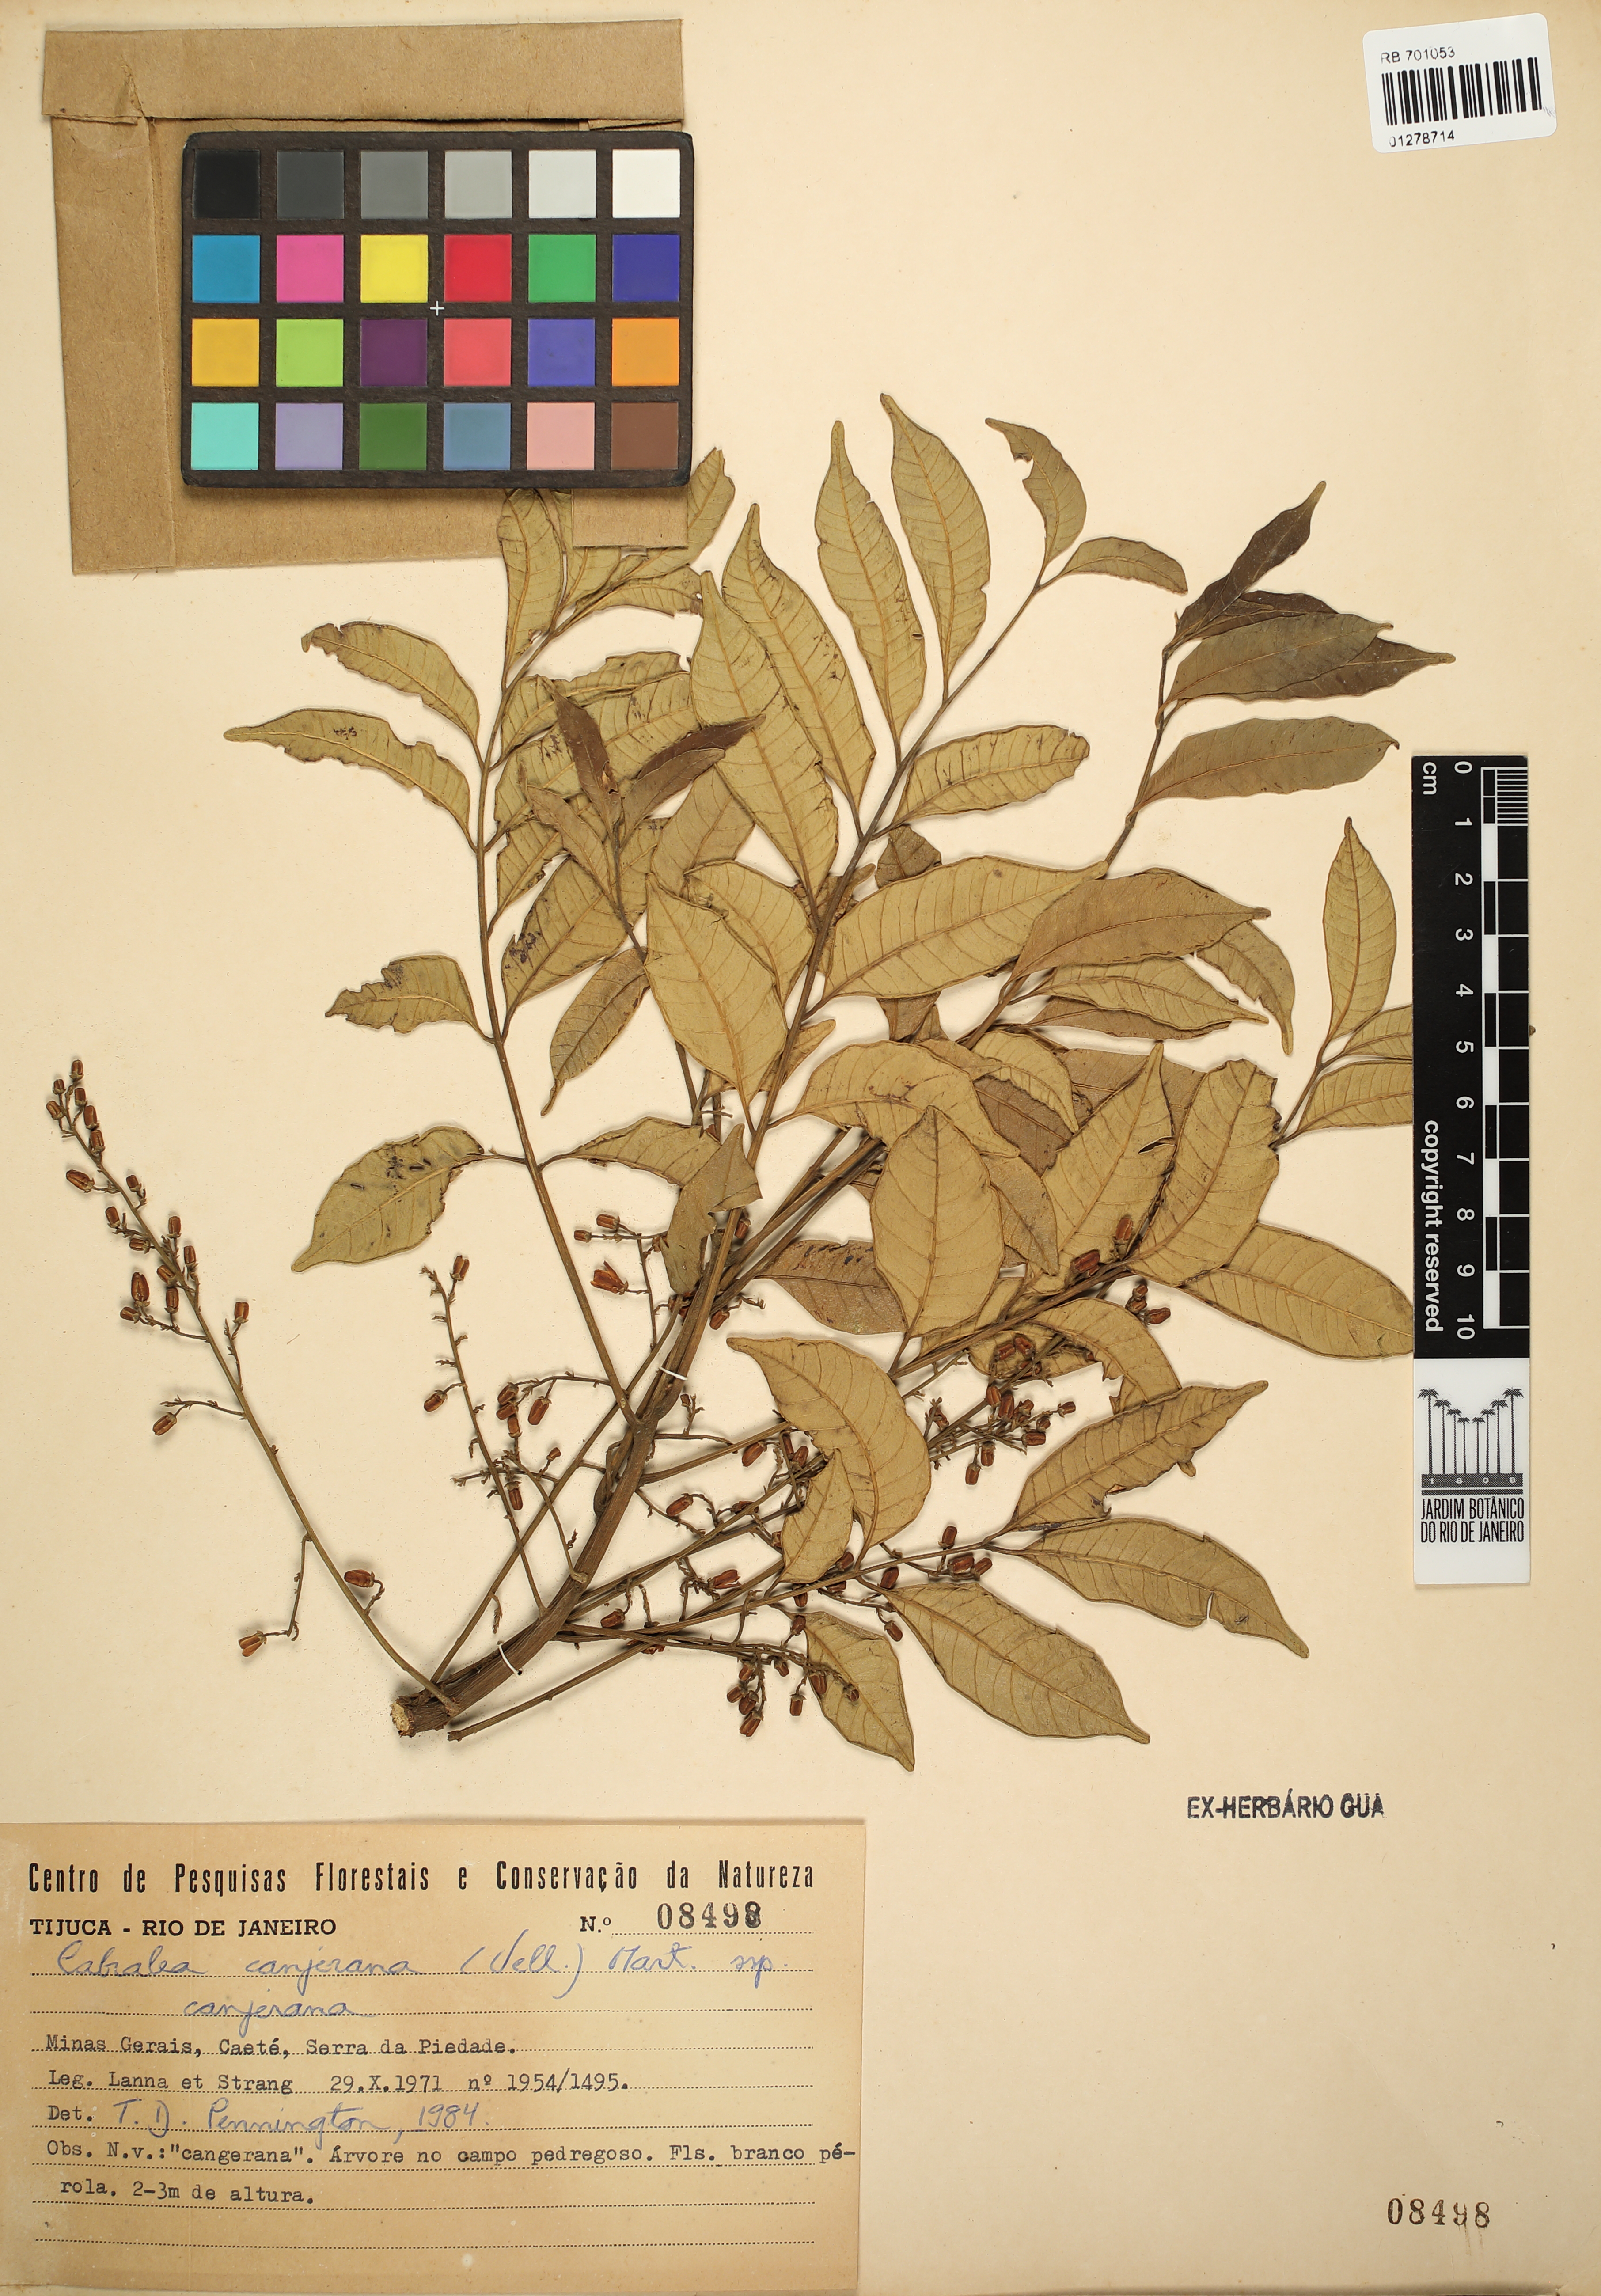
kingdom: Plantae
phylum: Tracheophyta
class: Magnoliopsida
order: Sapindales
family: Meliaceae
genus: Cabralea
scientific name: Cabralea canjerana
